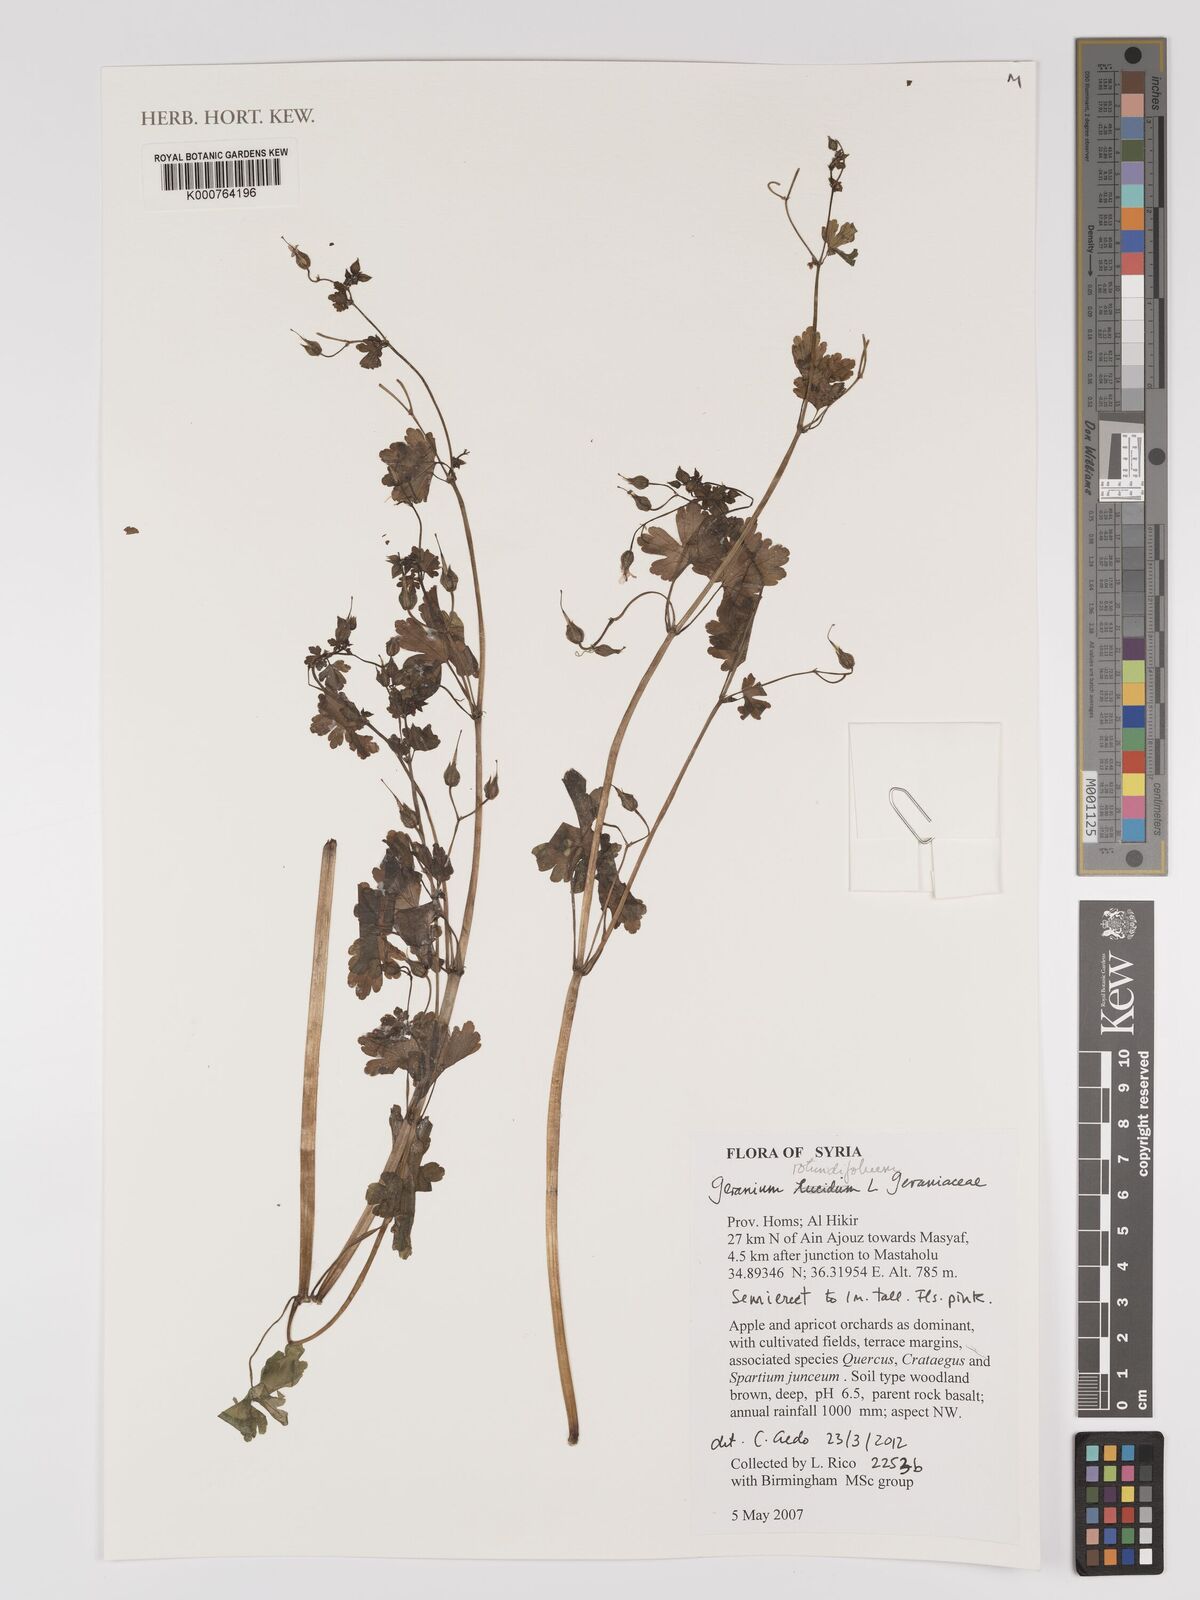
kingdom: Plantae
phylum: Tracheophyta
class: Magnoliopsida
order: Geraniales
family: Geraniaceae
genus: Geranium
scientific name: Geranium rotundifolium
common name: Round-leaved crane's-bill
